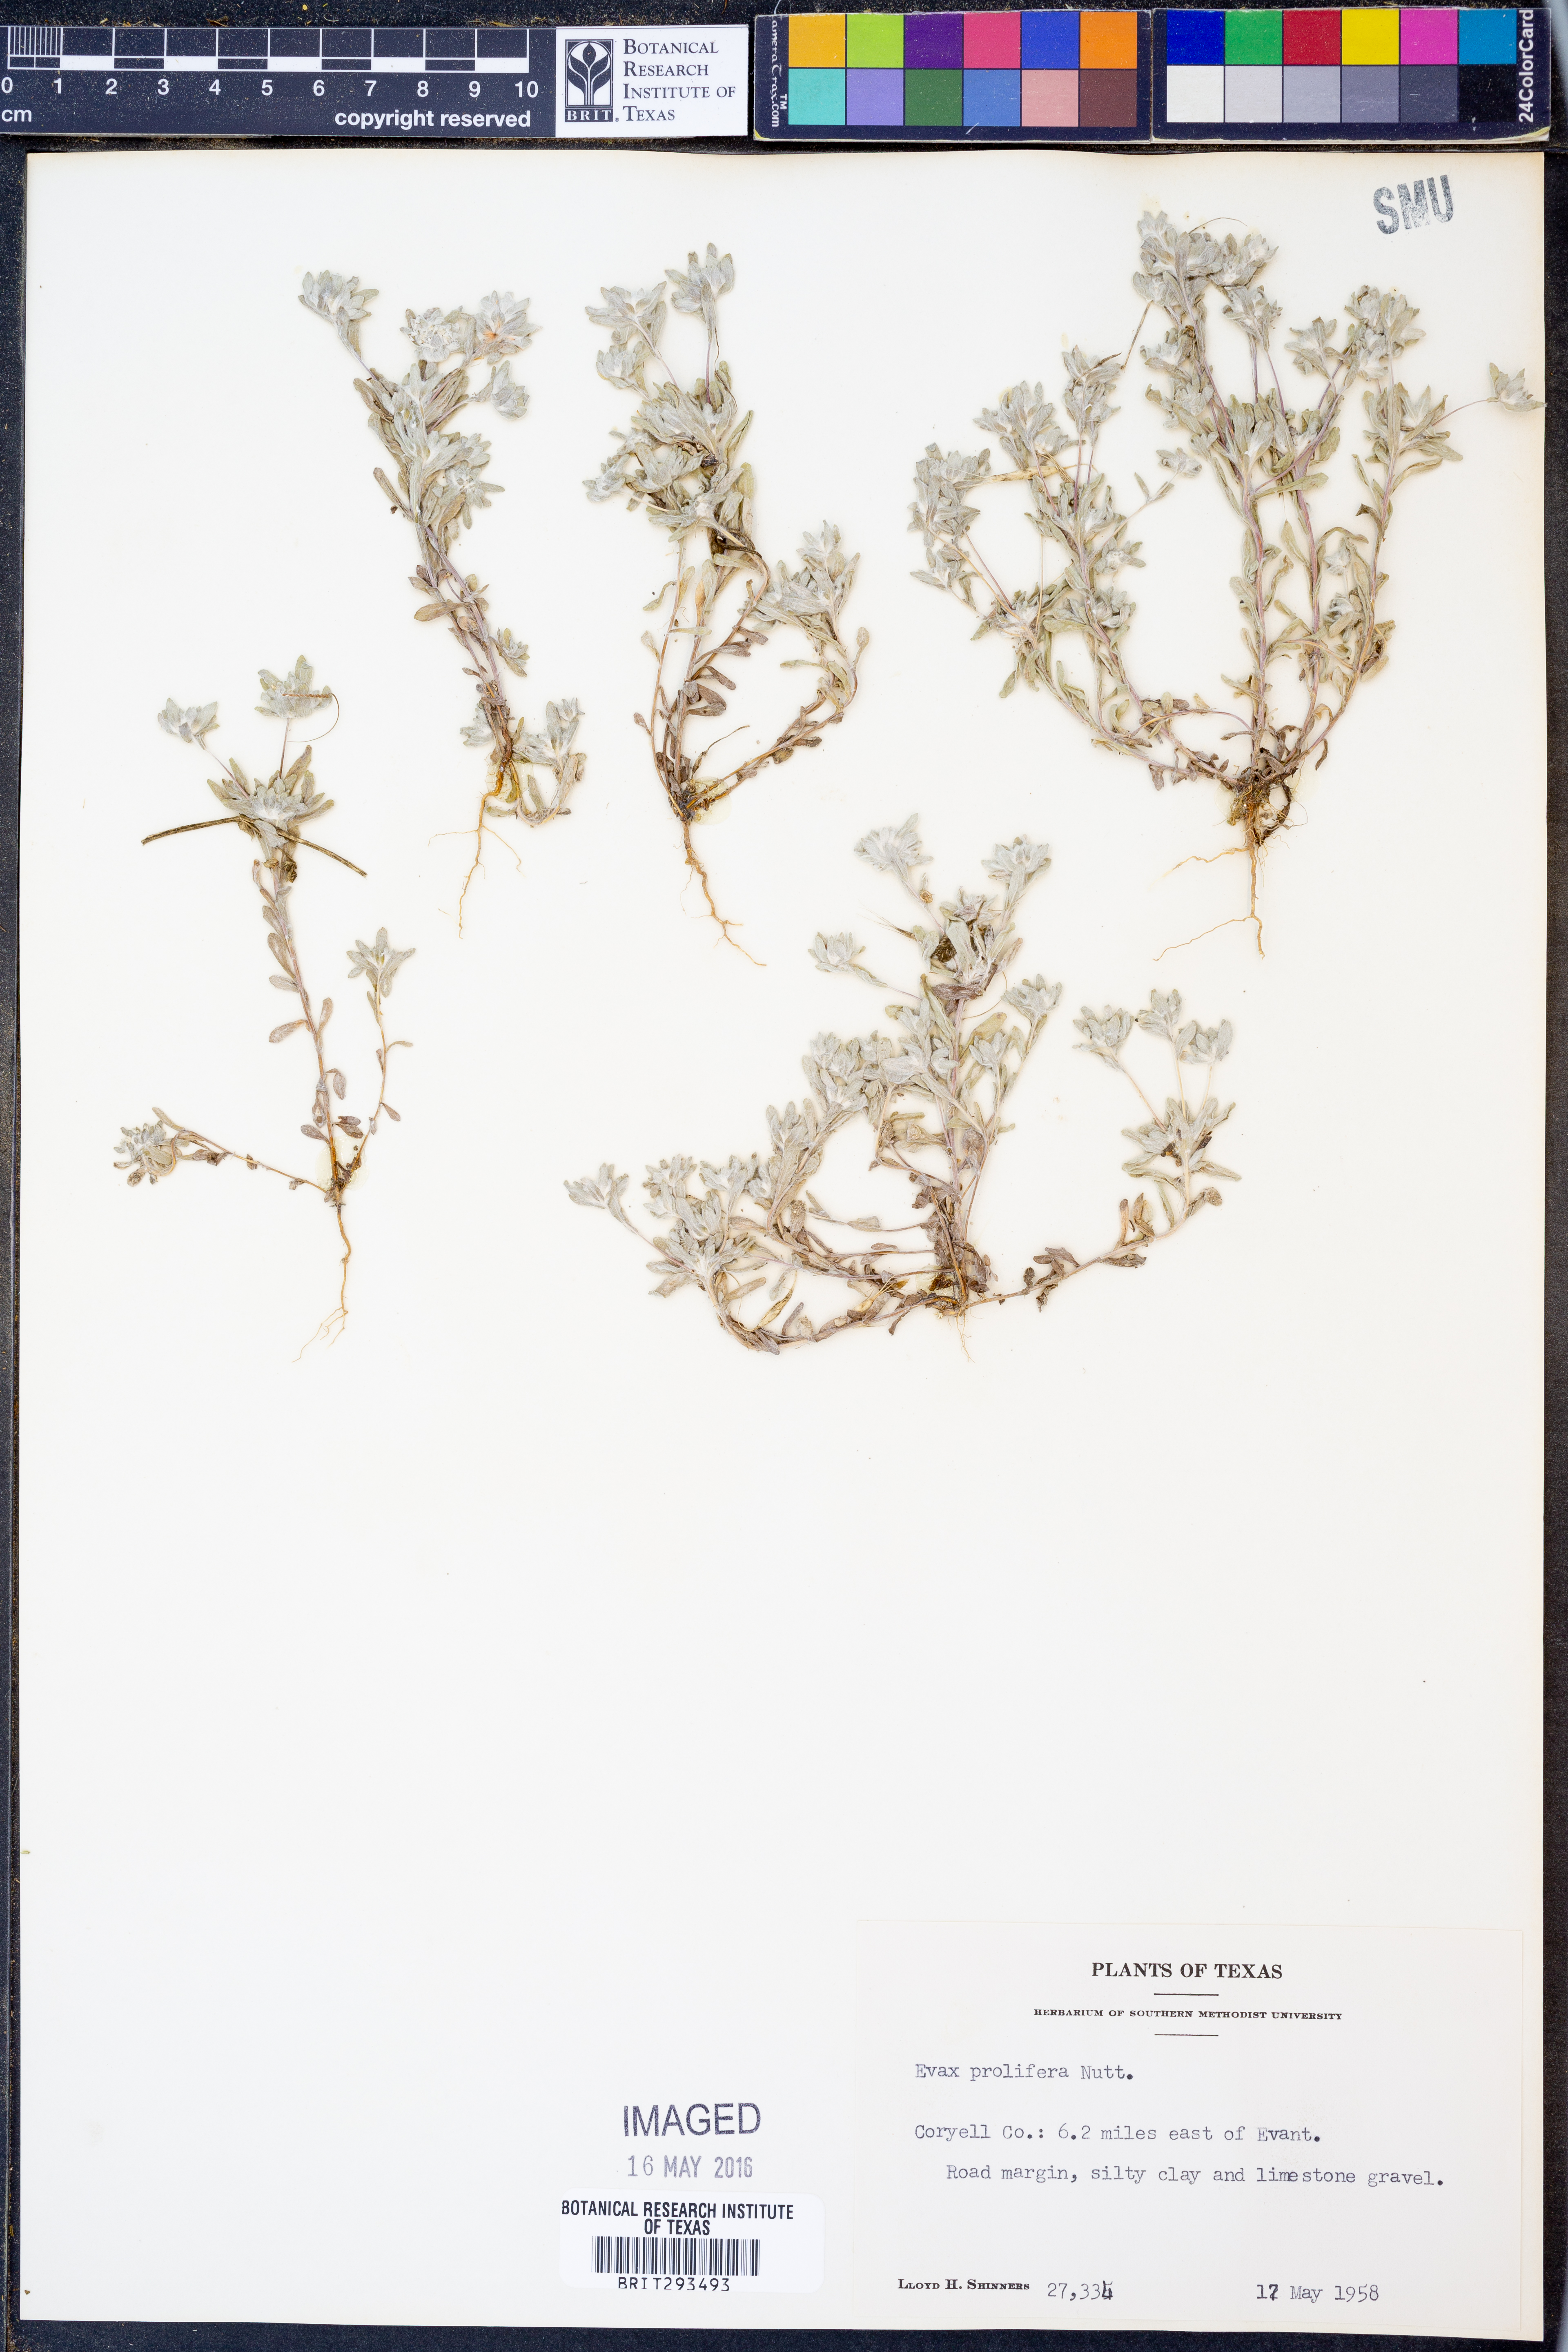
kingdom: Plantae
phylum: Tracheophyta
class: Magnoliopsida
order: Asterales
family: Asteraceae
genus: Diaperia
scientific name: Diaperia prolifera
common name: Big-head rabbit-tobacco
